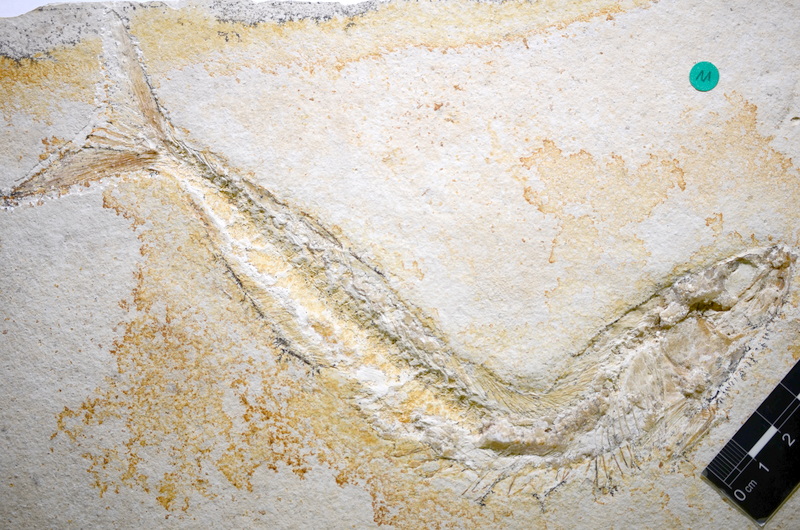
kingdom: Animalia
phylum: Chordata
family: Allothrissopidae
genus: Allothrissops
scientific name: Allothrissops mesogaster
